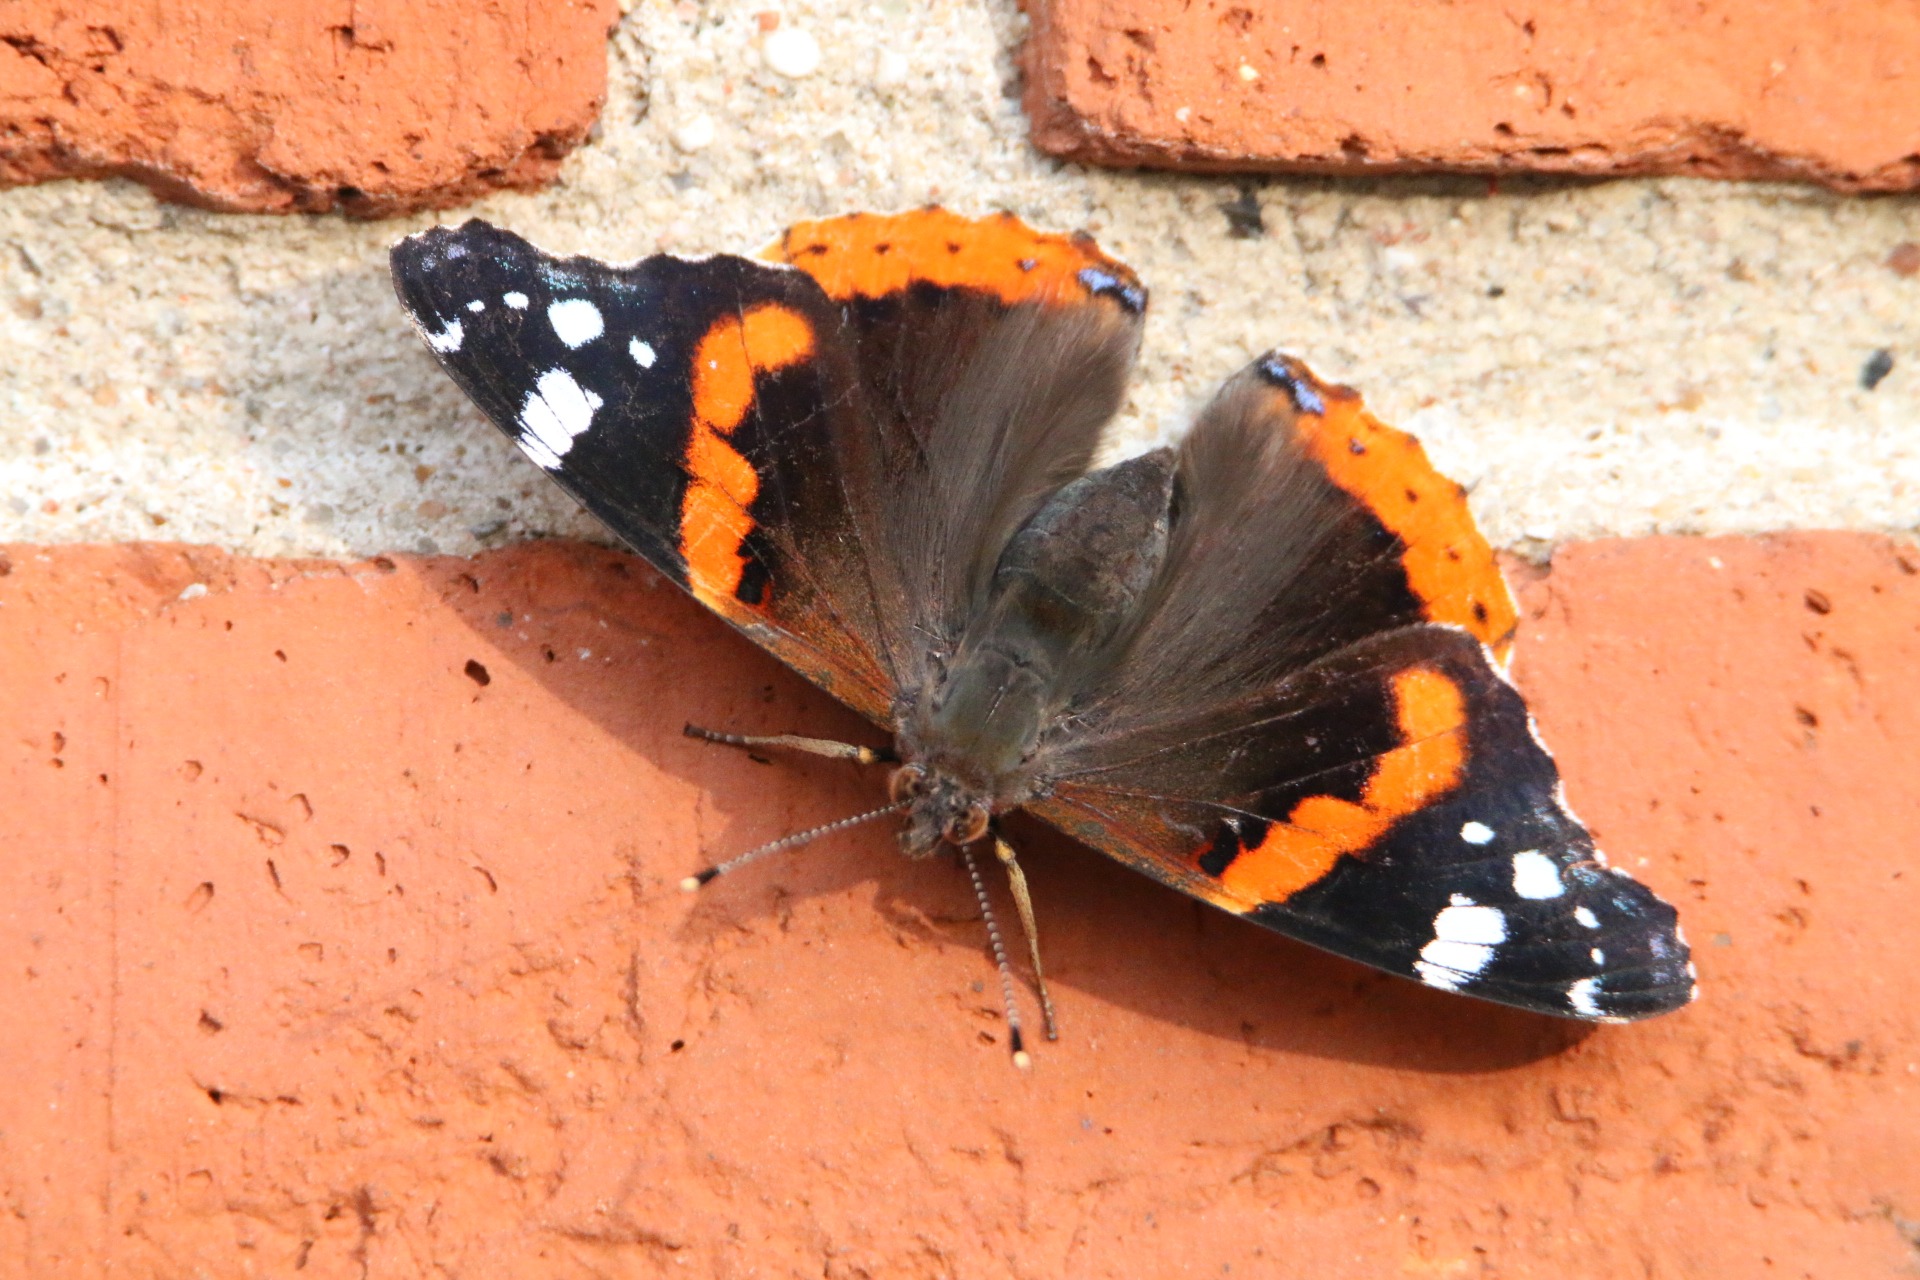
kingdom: Animalia
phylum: Arthropoda
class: Insecta
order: Lepidoptera
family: Nymphalidae
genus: Vanessa
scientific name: Vanessa atalanta
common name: Admiral
